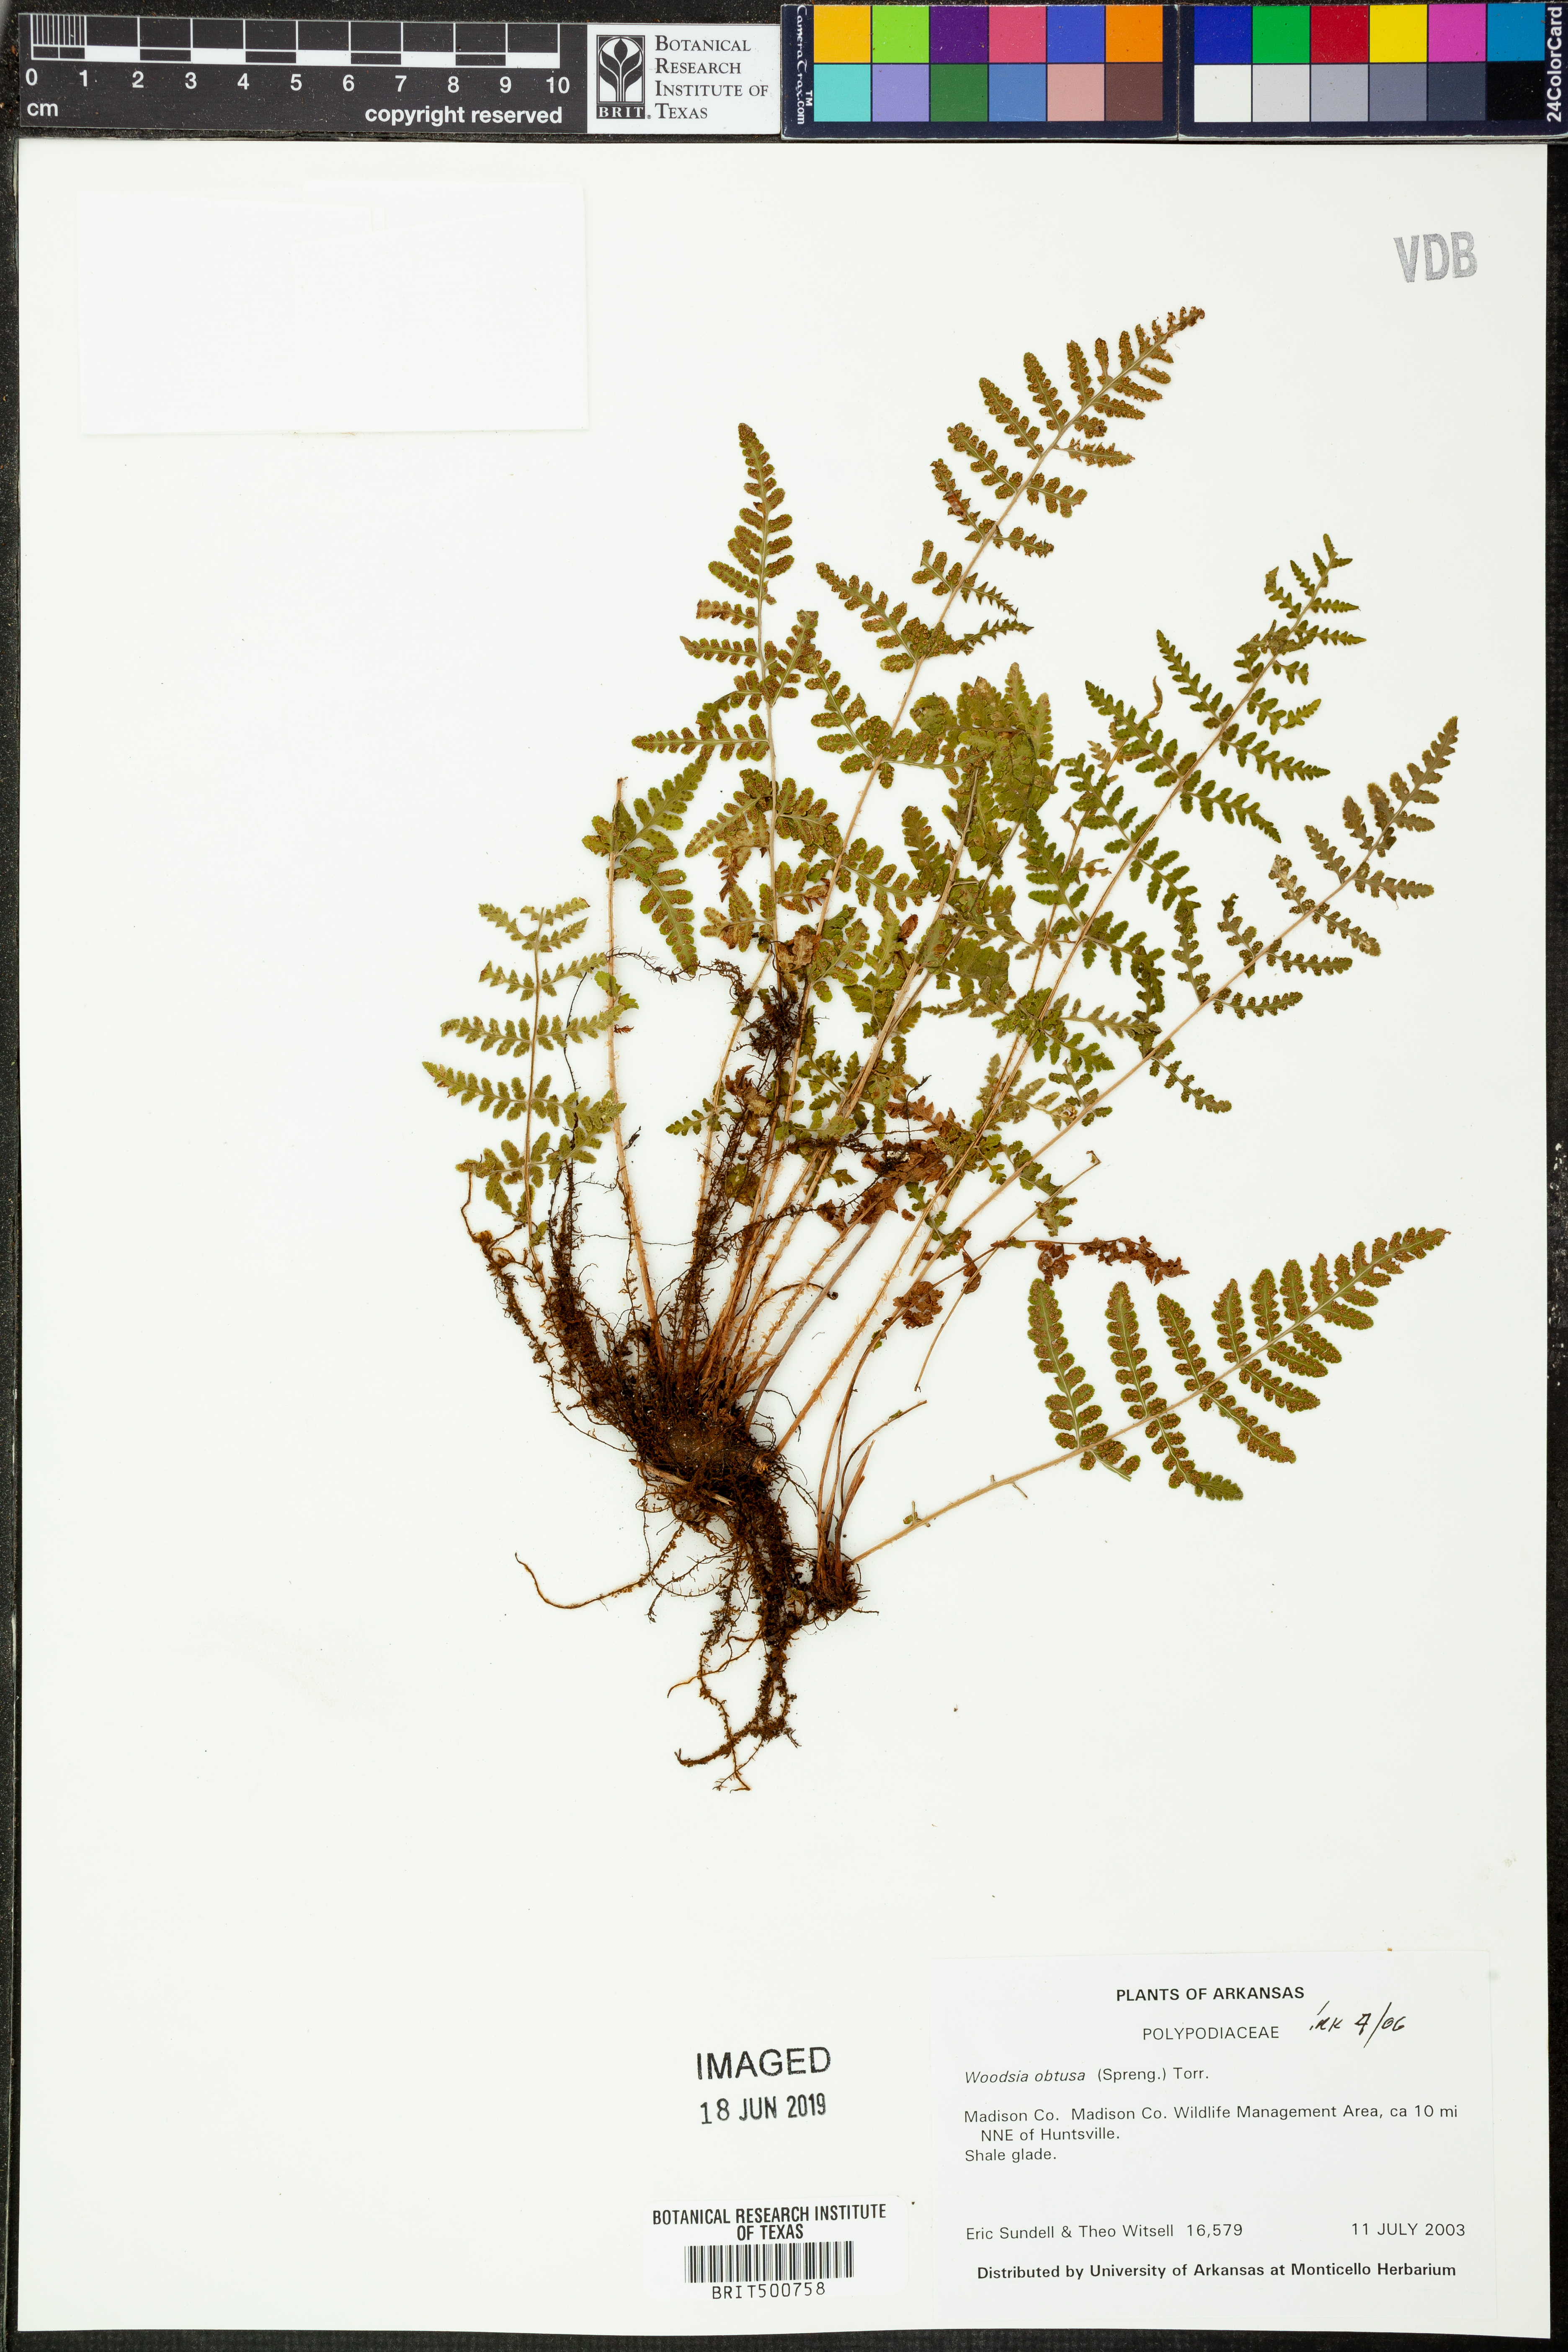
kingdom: Plantae
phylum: Tracheophyta
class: Polypodiopsida
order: Polypodiales
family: Woodsiaceae
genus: Physematium
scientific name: Physematium obtusum
